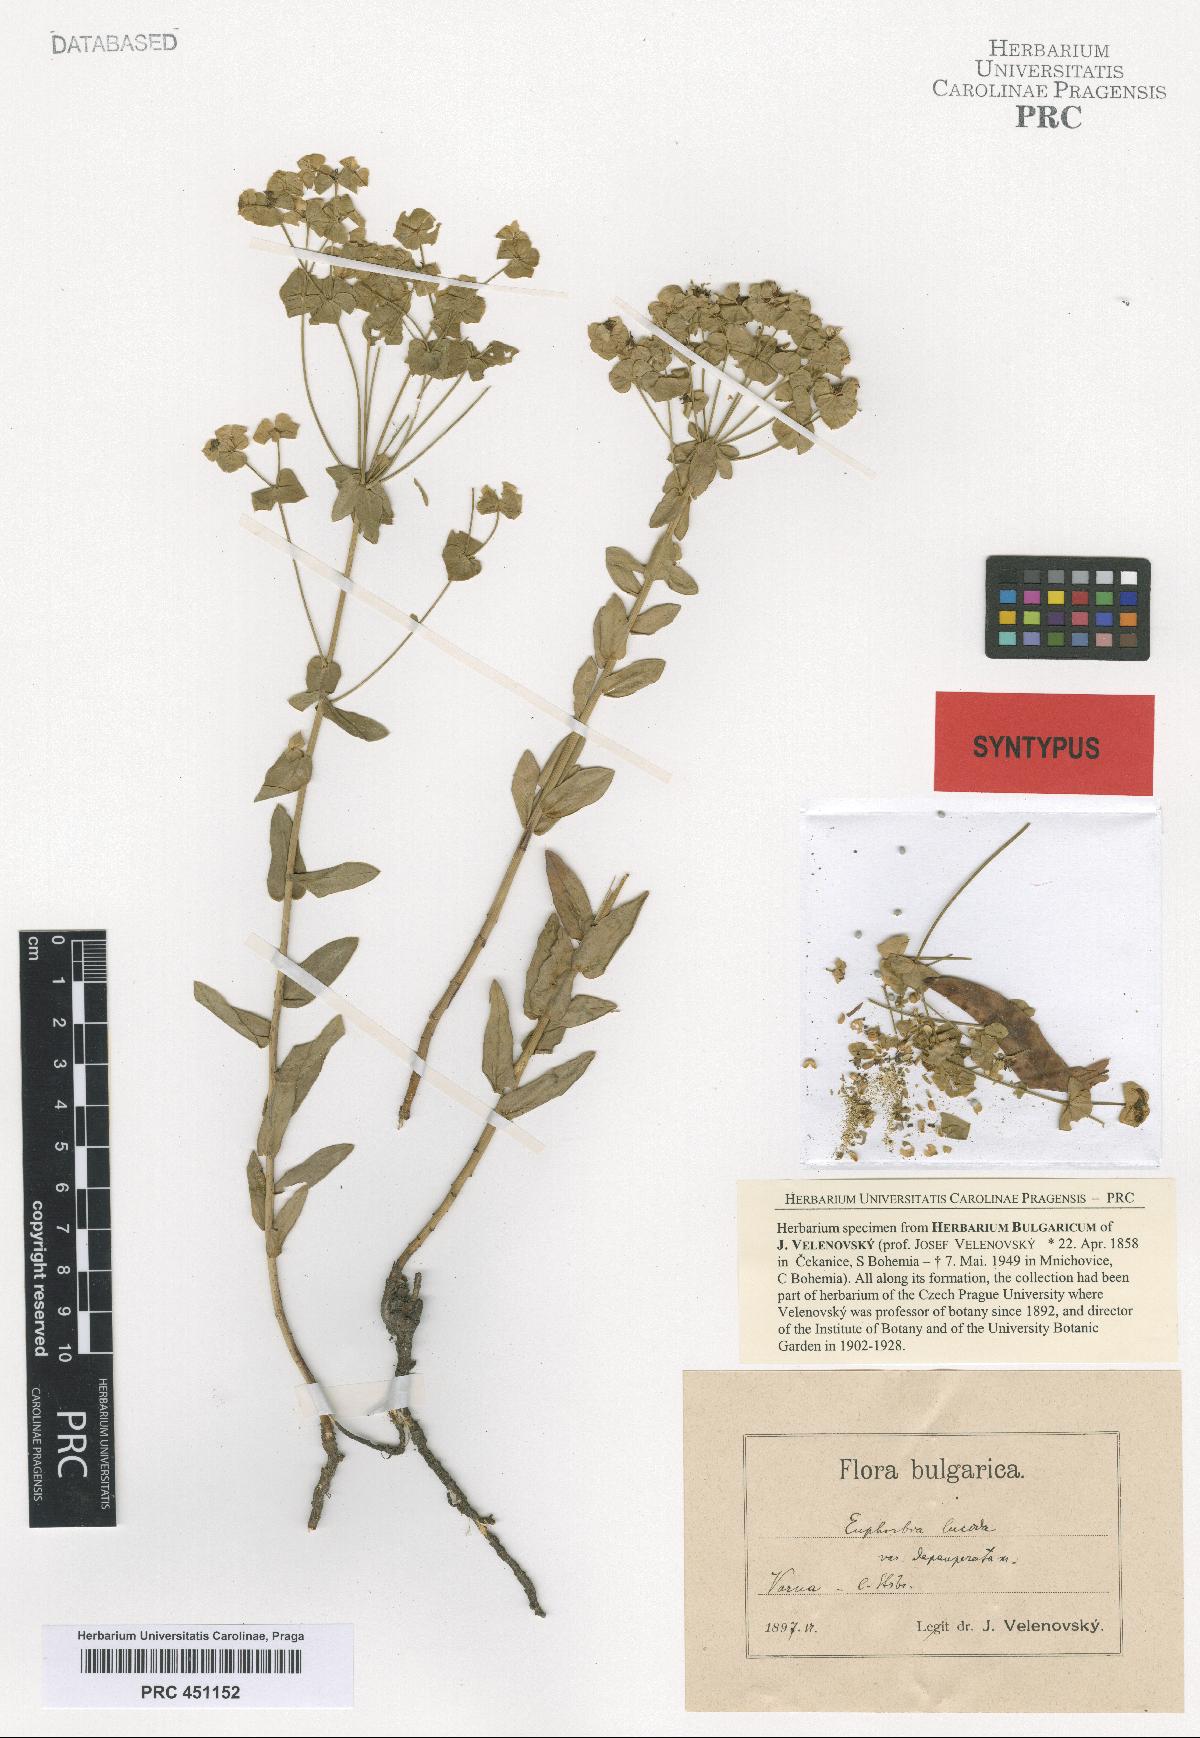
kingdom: Plantae
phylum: Tracheophyta
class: Magnoliopsida
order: Malpighiales
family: Euphorbiaceae
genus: Euphorbia
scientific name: Euphorbia lucida
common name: Shining spurge
